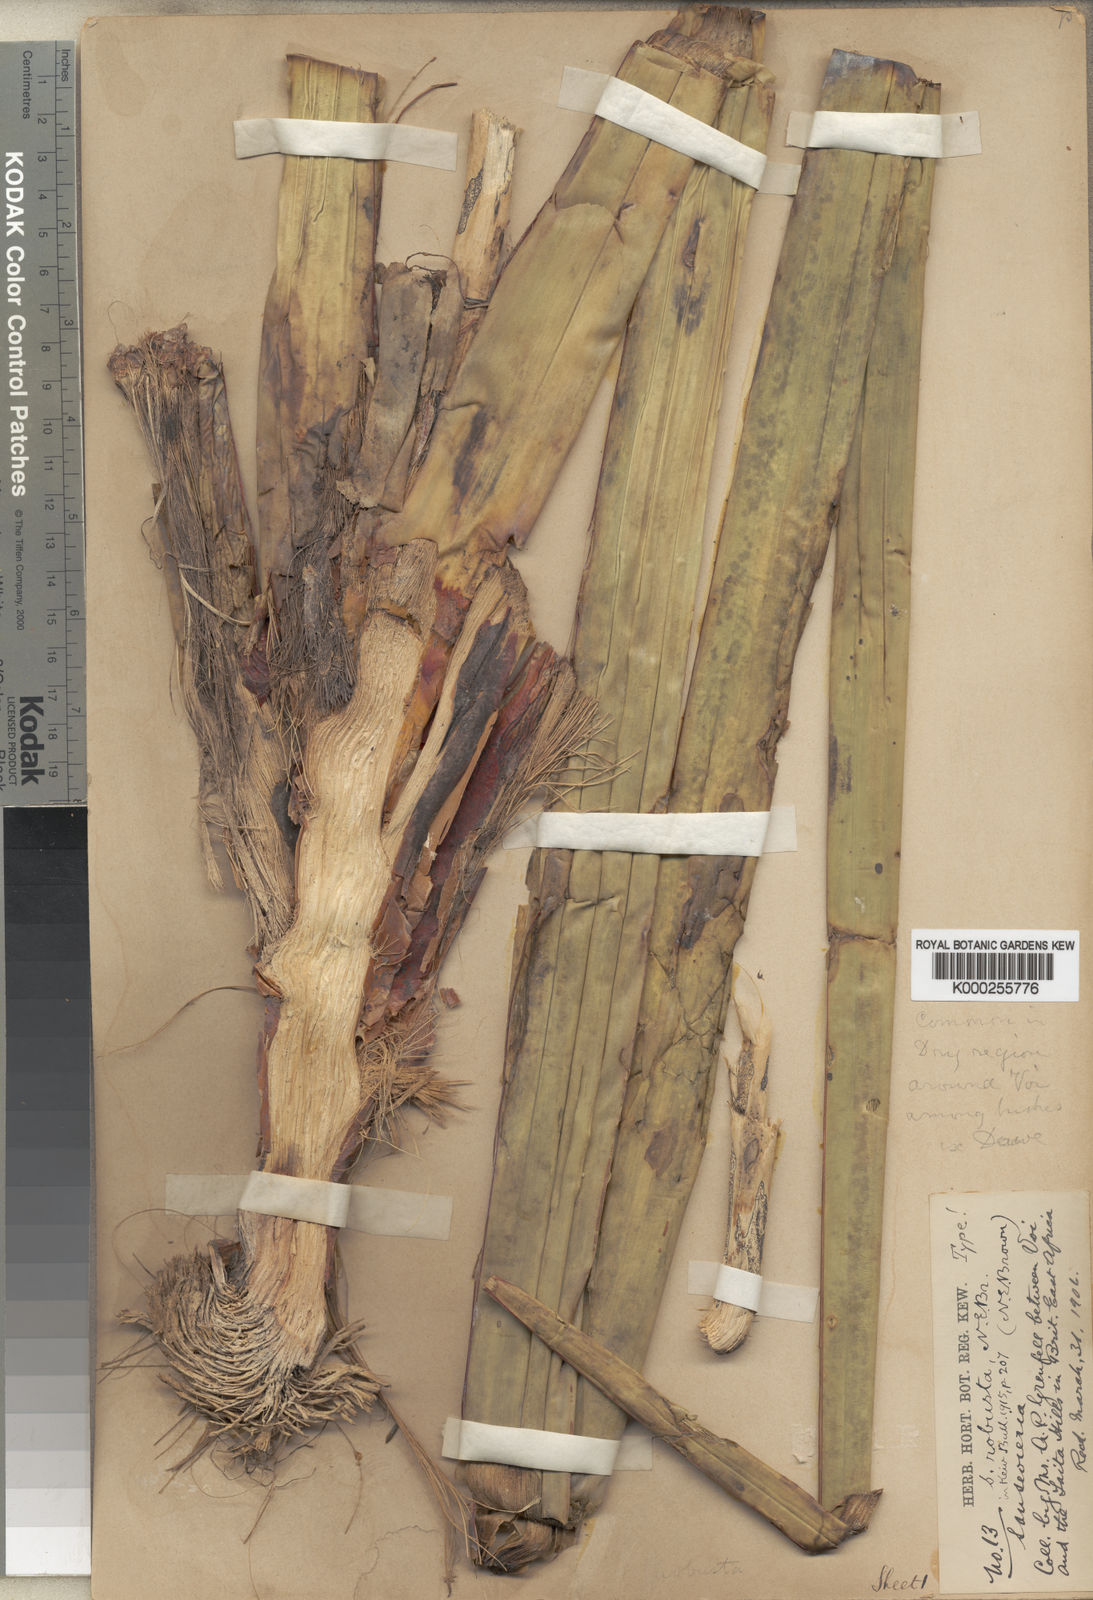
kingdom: Plantae
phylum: Tracheophyta
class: Liliopsida
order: Asparagales
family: Asparagaceae
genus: Dracaena
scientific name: Dracaena perrotii
